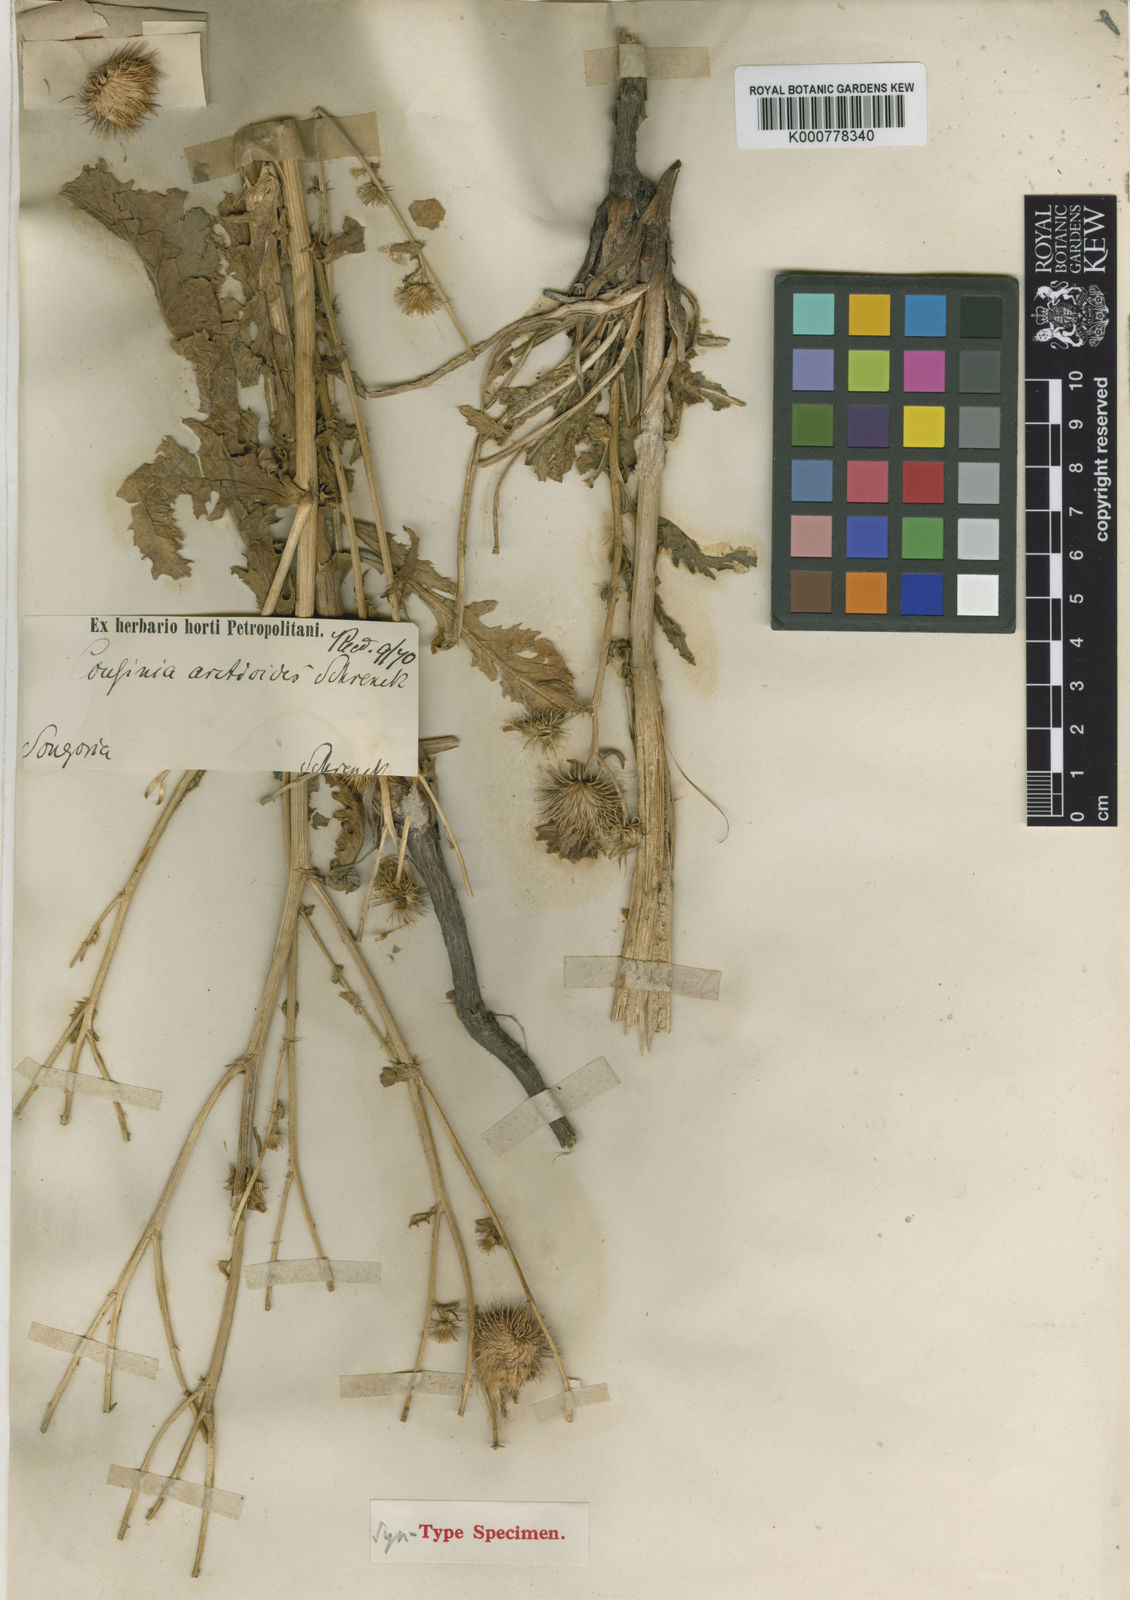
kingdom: Plantae
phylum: Tracheophyta
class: Magnoliopsida
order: Asterales
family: Asteraceae
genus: Arctium
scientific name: Arctium arctiodes
